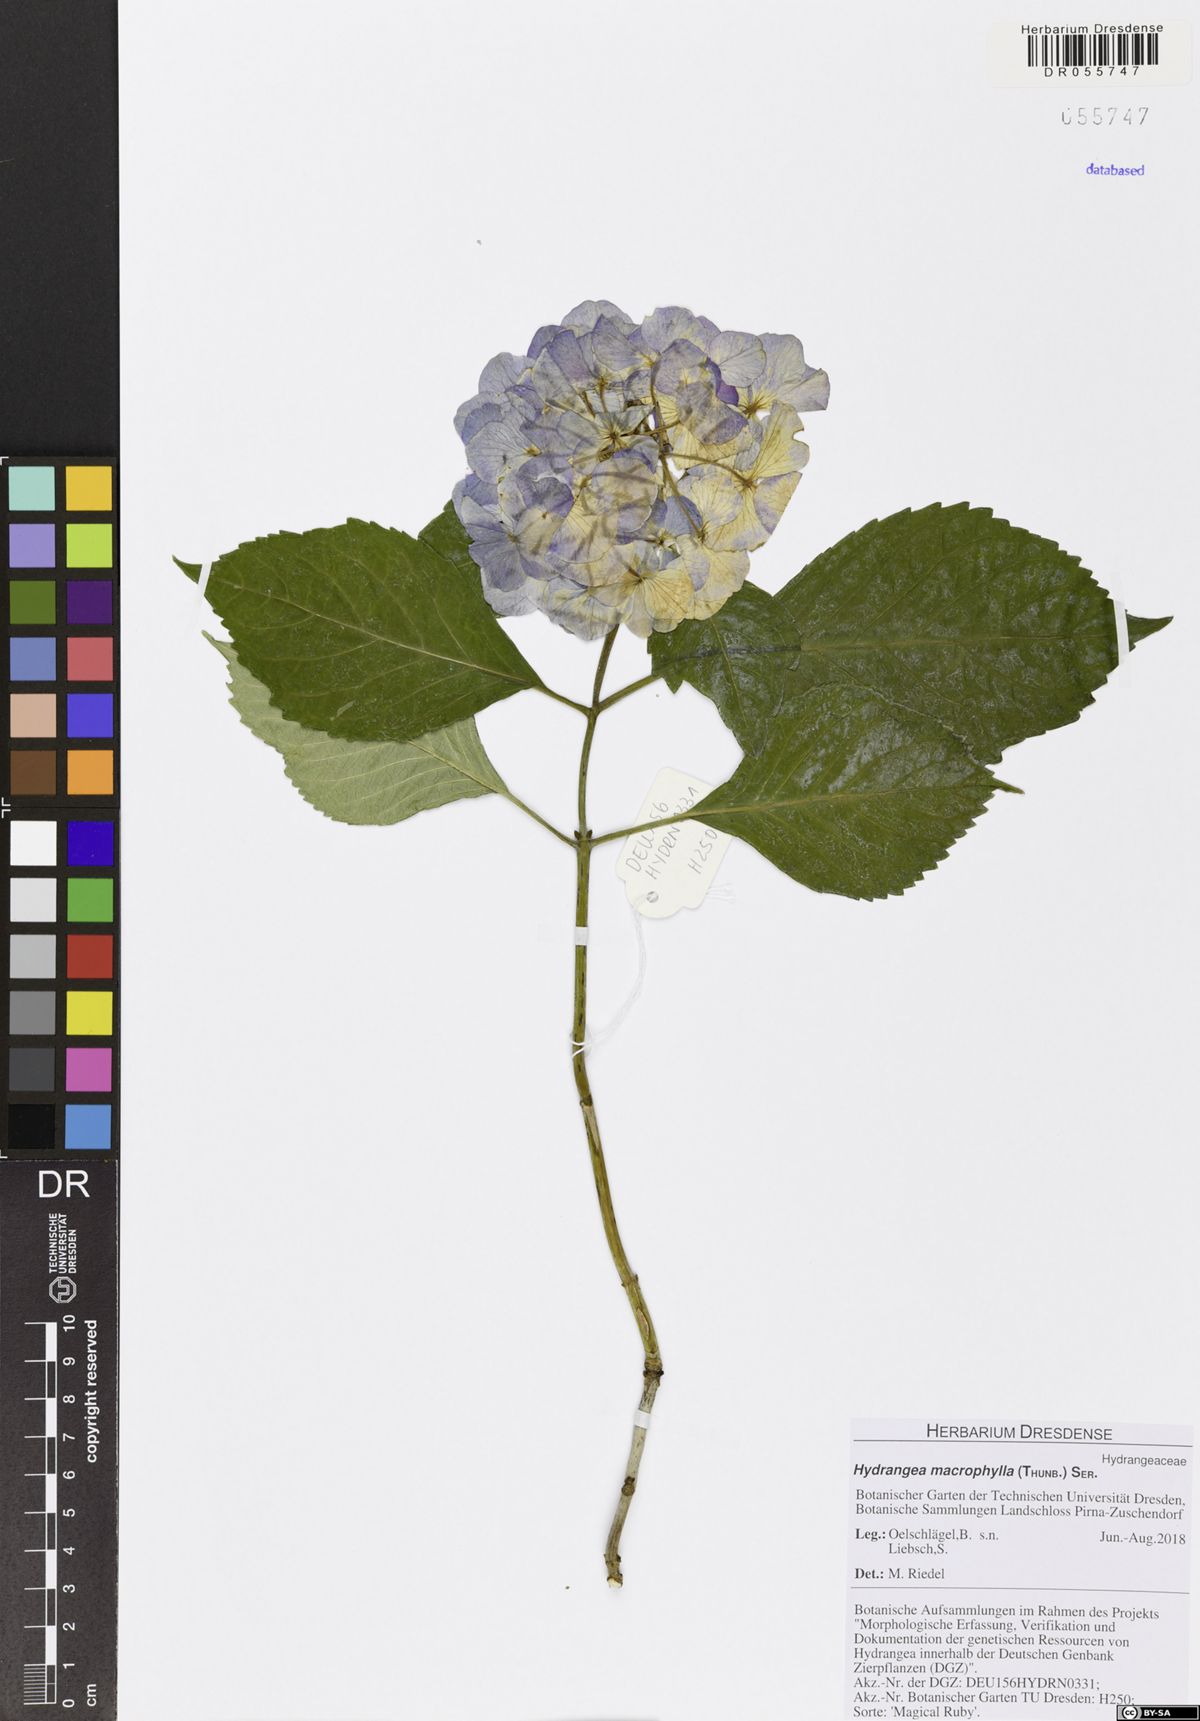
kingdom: Plantae
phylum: Tracheophyta
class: Magnoliopsida
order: Cornales
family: Hydrangeaceae
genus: Hydrangea
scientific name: Hydrangea macrophylla
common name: Hydrangea
